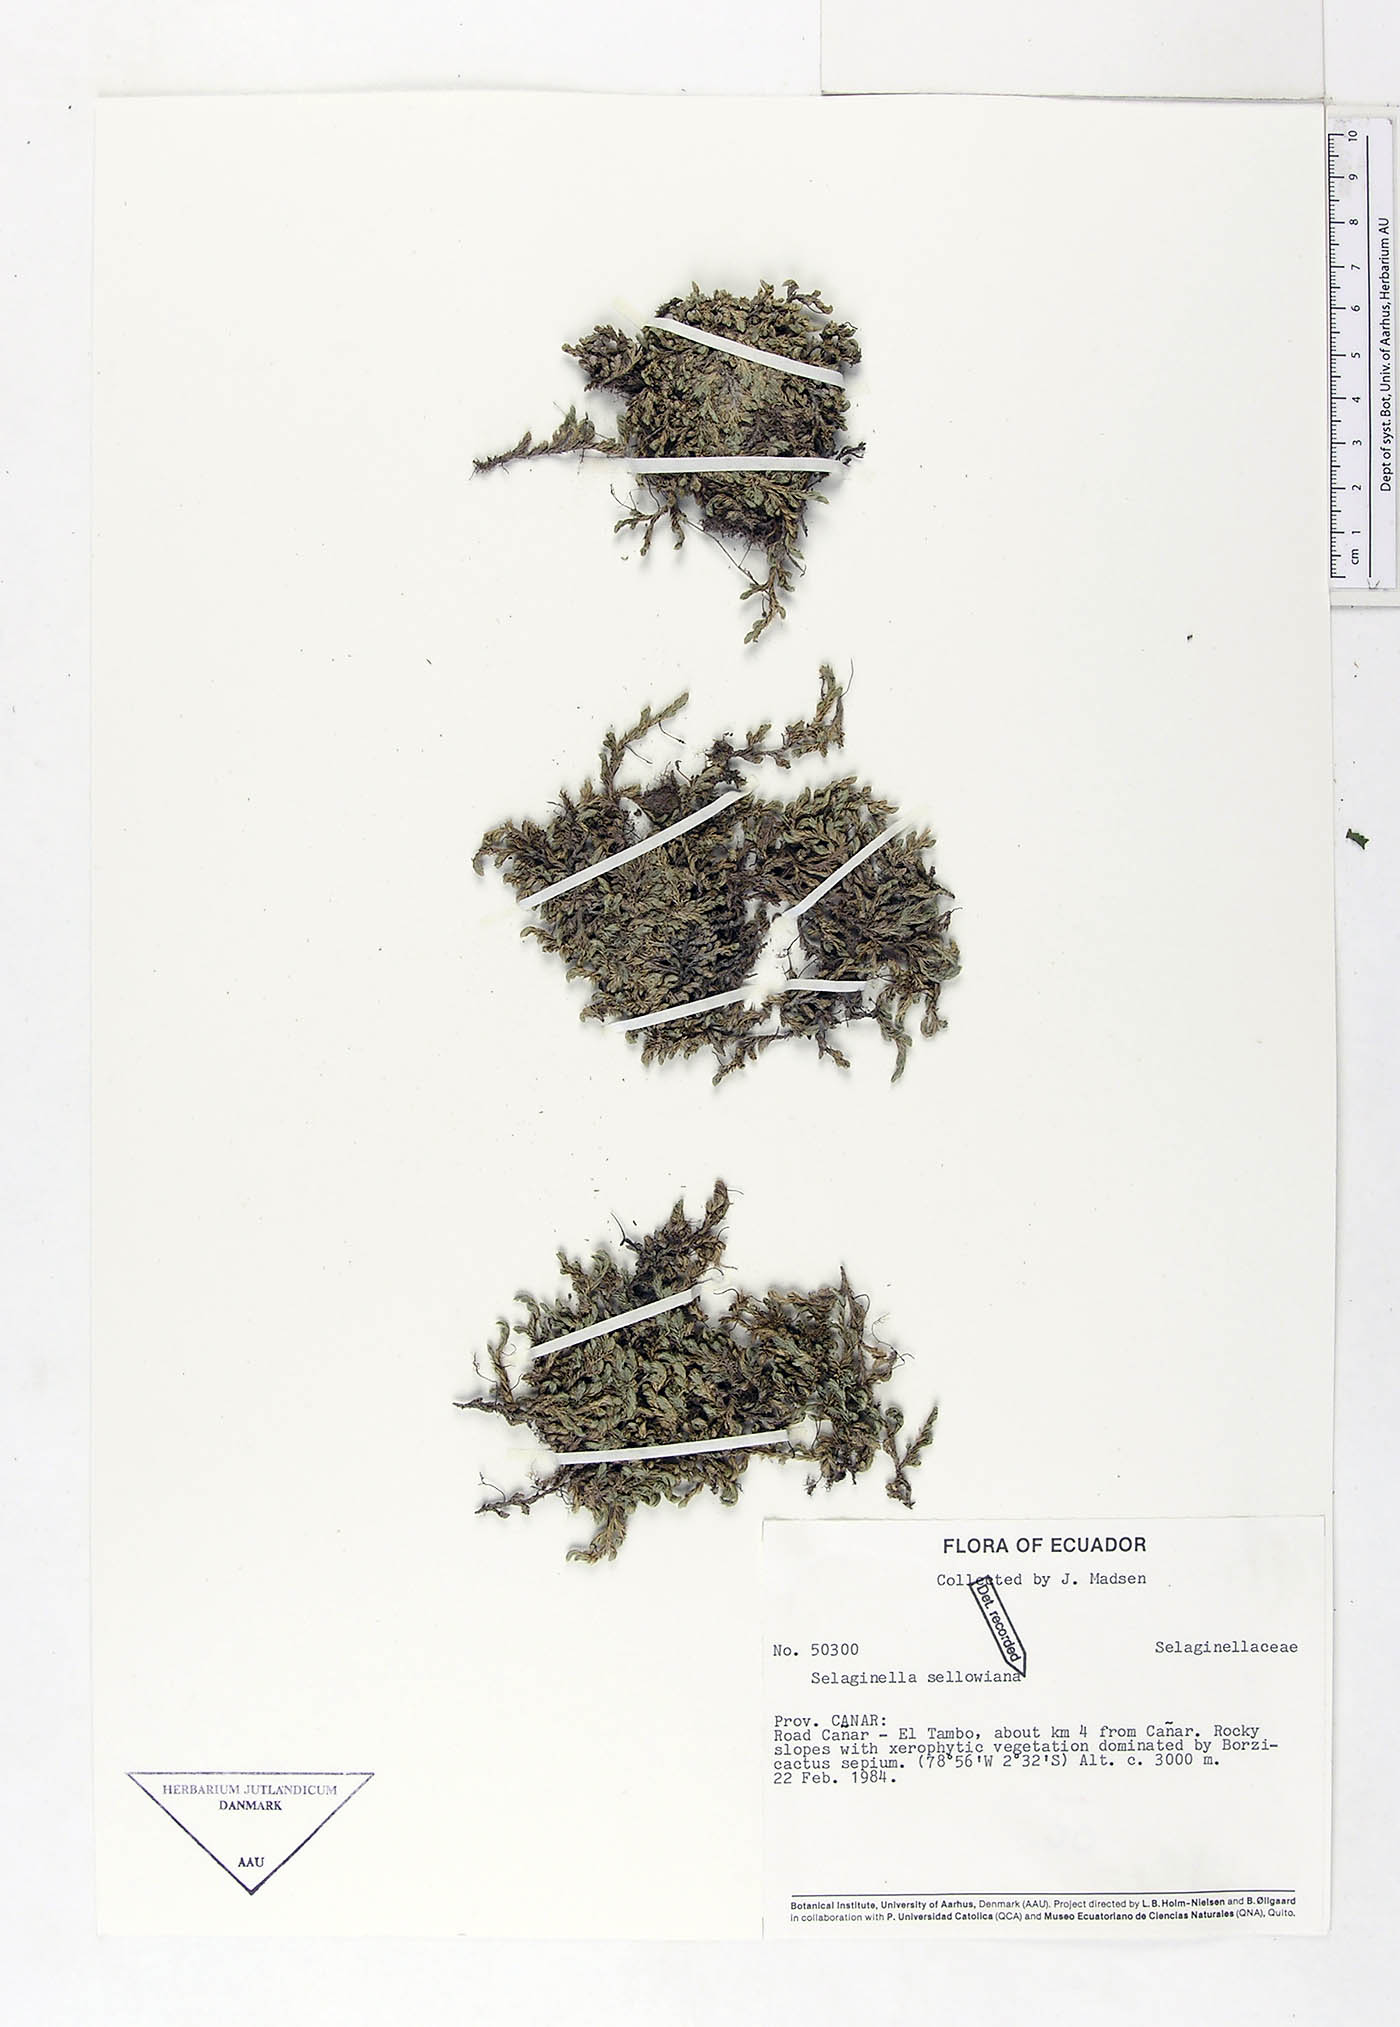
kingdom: Plantae
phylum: Tracheophyta
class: Lycopodiopsida
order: Selaginellales
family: Selaginellaceae
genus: Selaginella
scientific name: Selaginella sellowii
